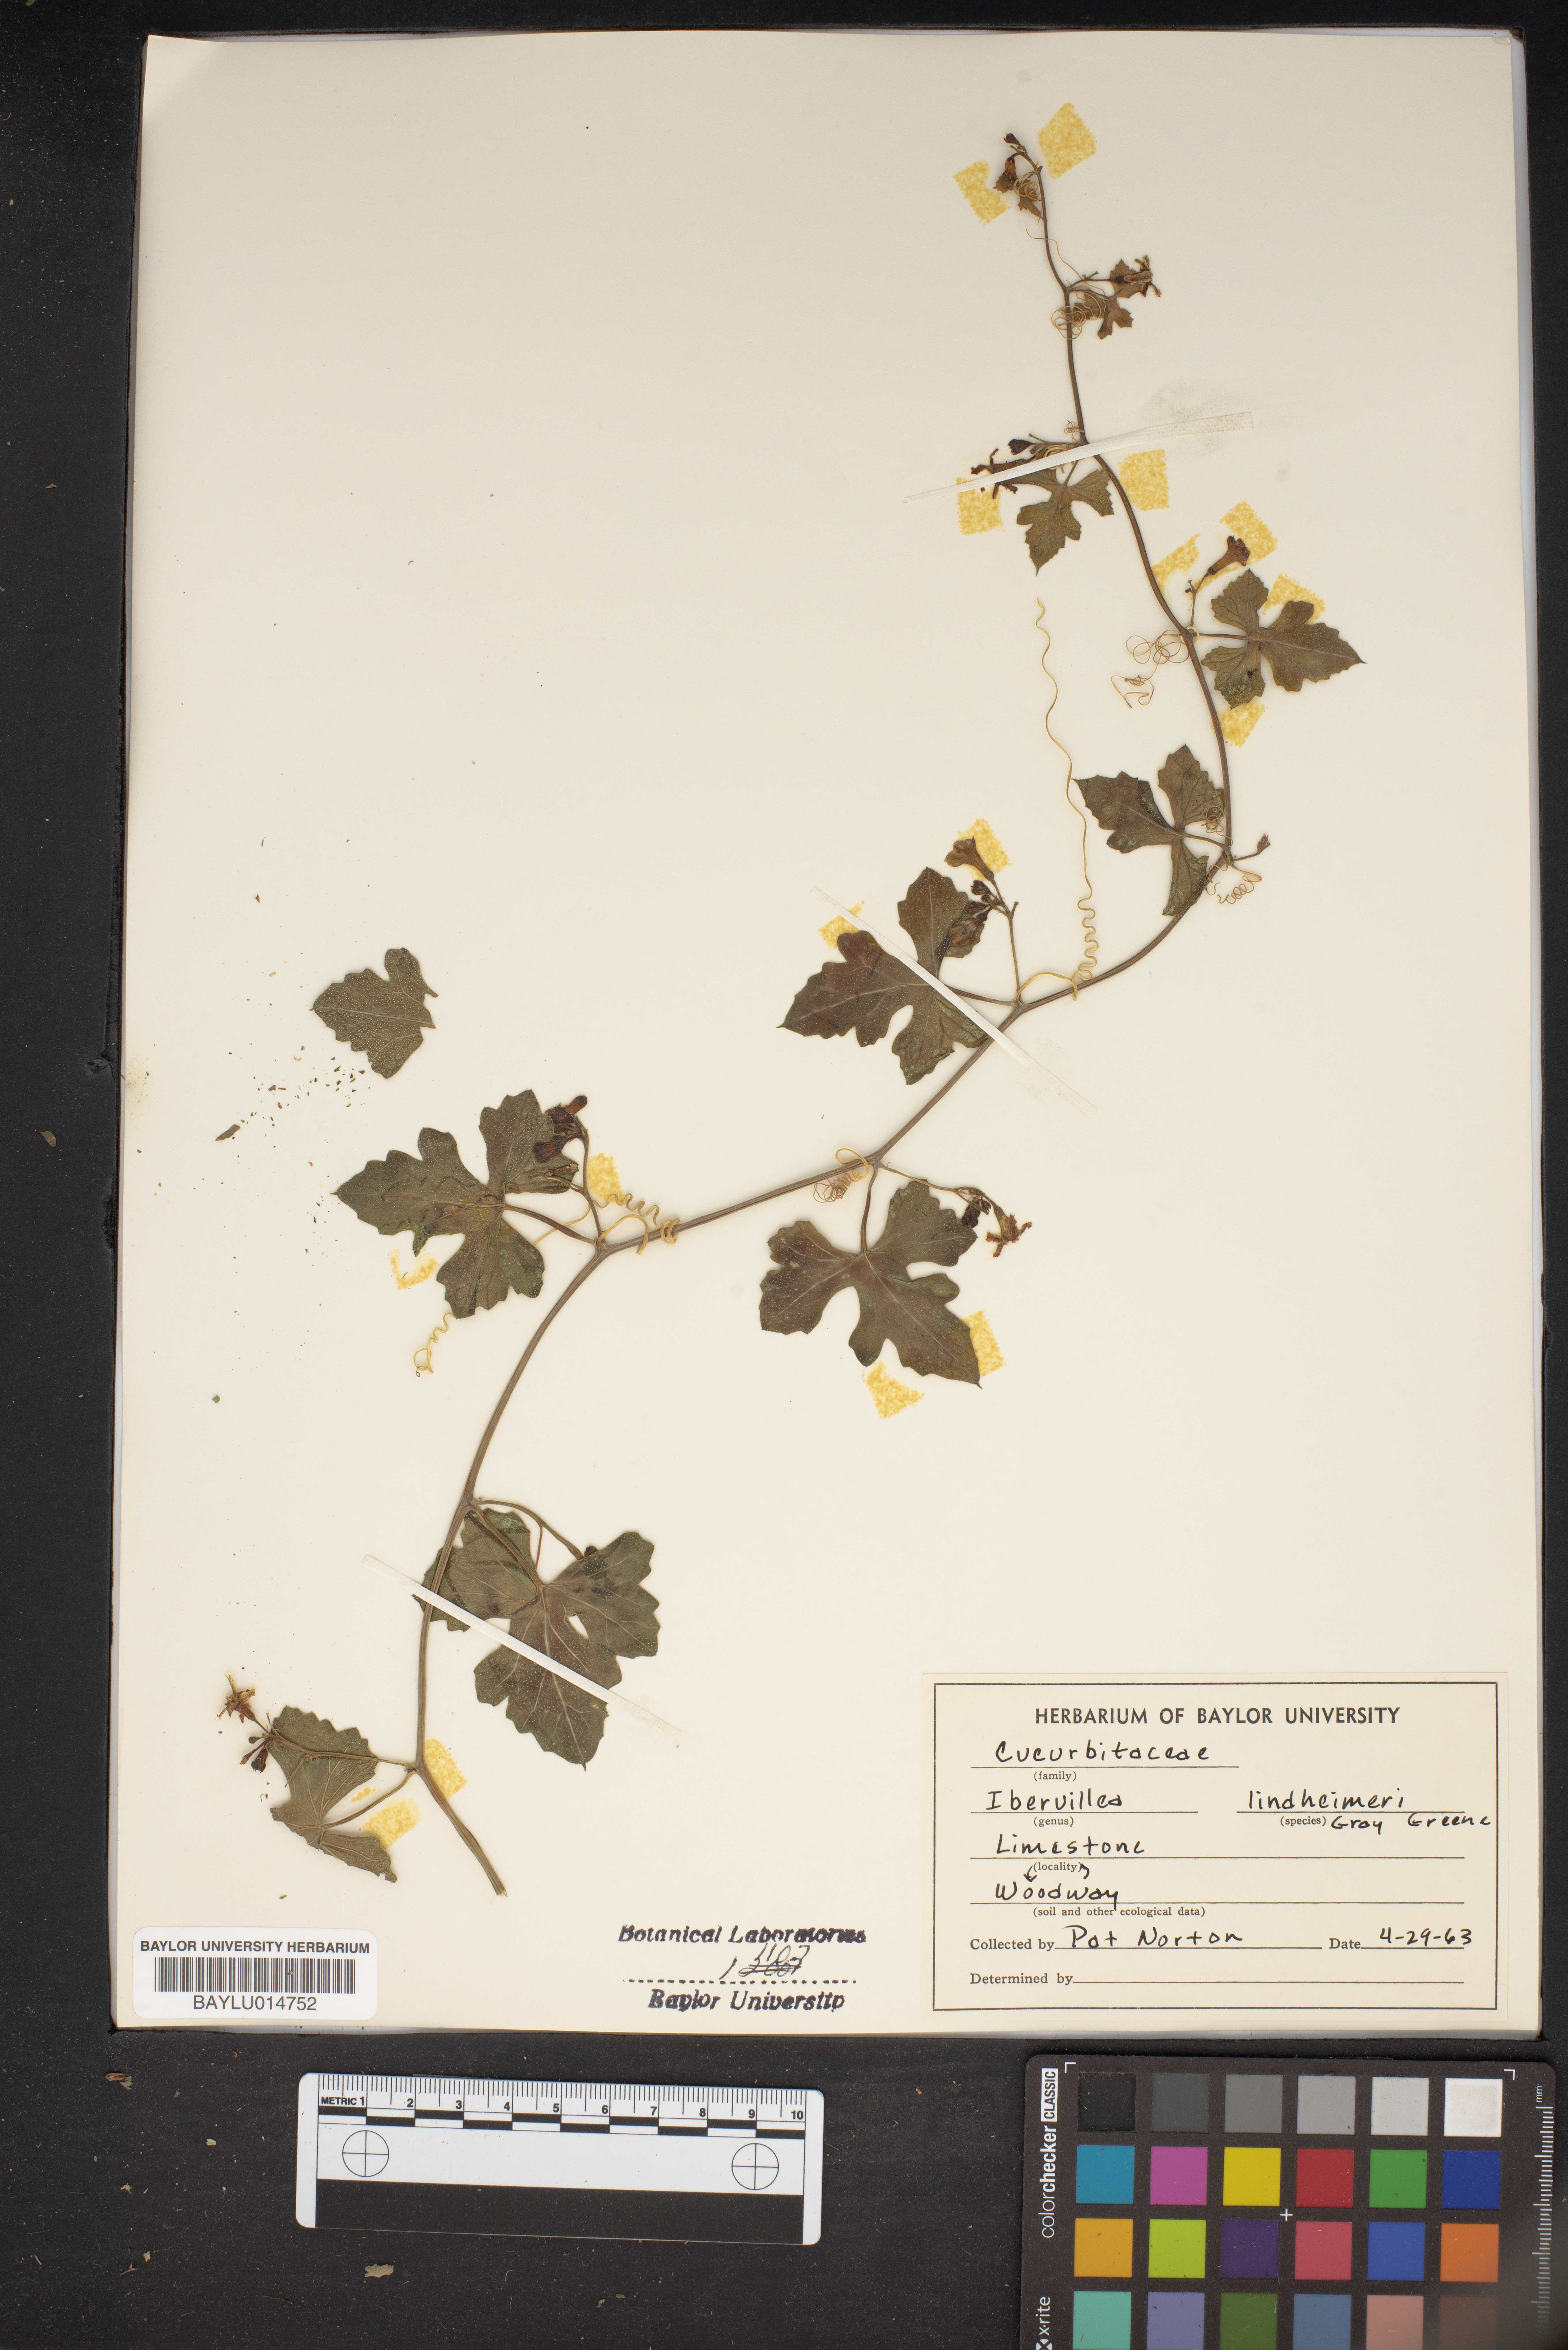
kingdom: Plantae
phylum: Tracheophyta
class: Magnoliopsida
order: Cucurbitales
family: Cucurbitaceae
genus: Ibervillea
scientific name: Ibervillea lindheimeri
